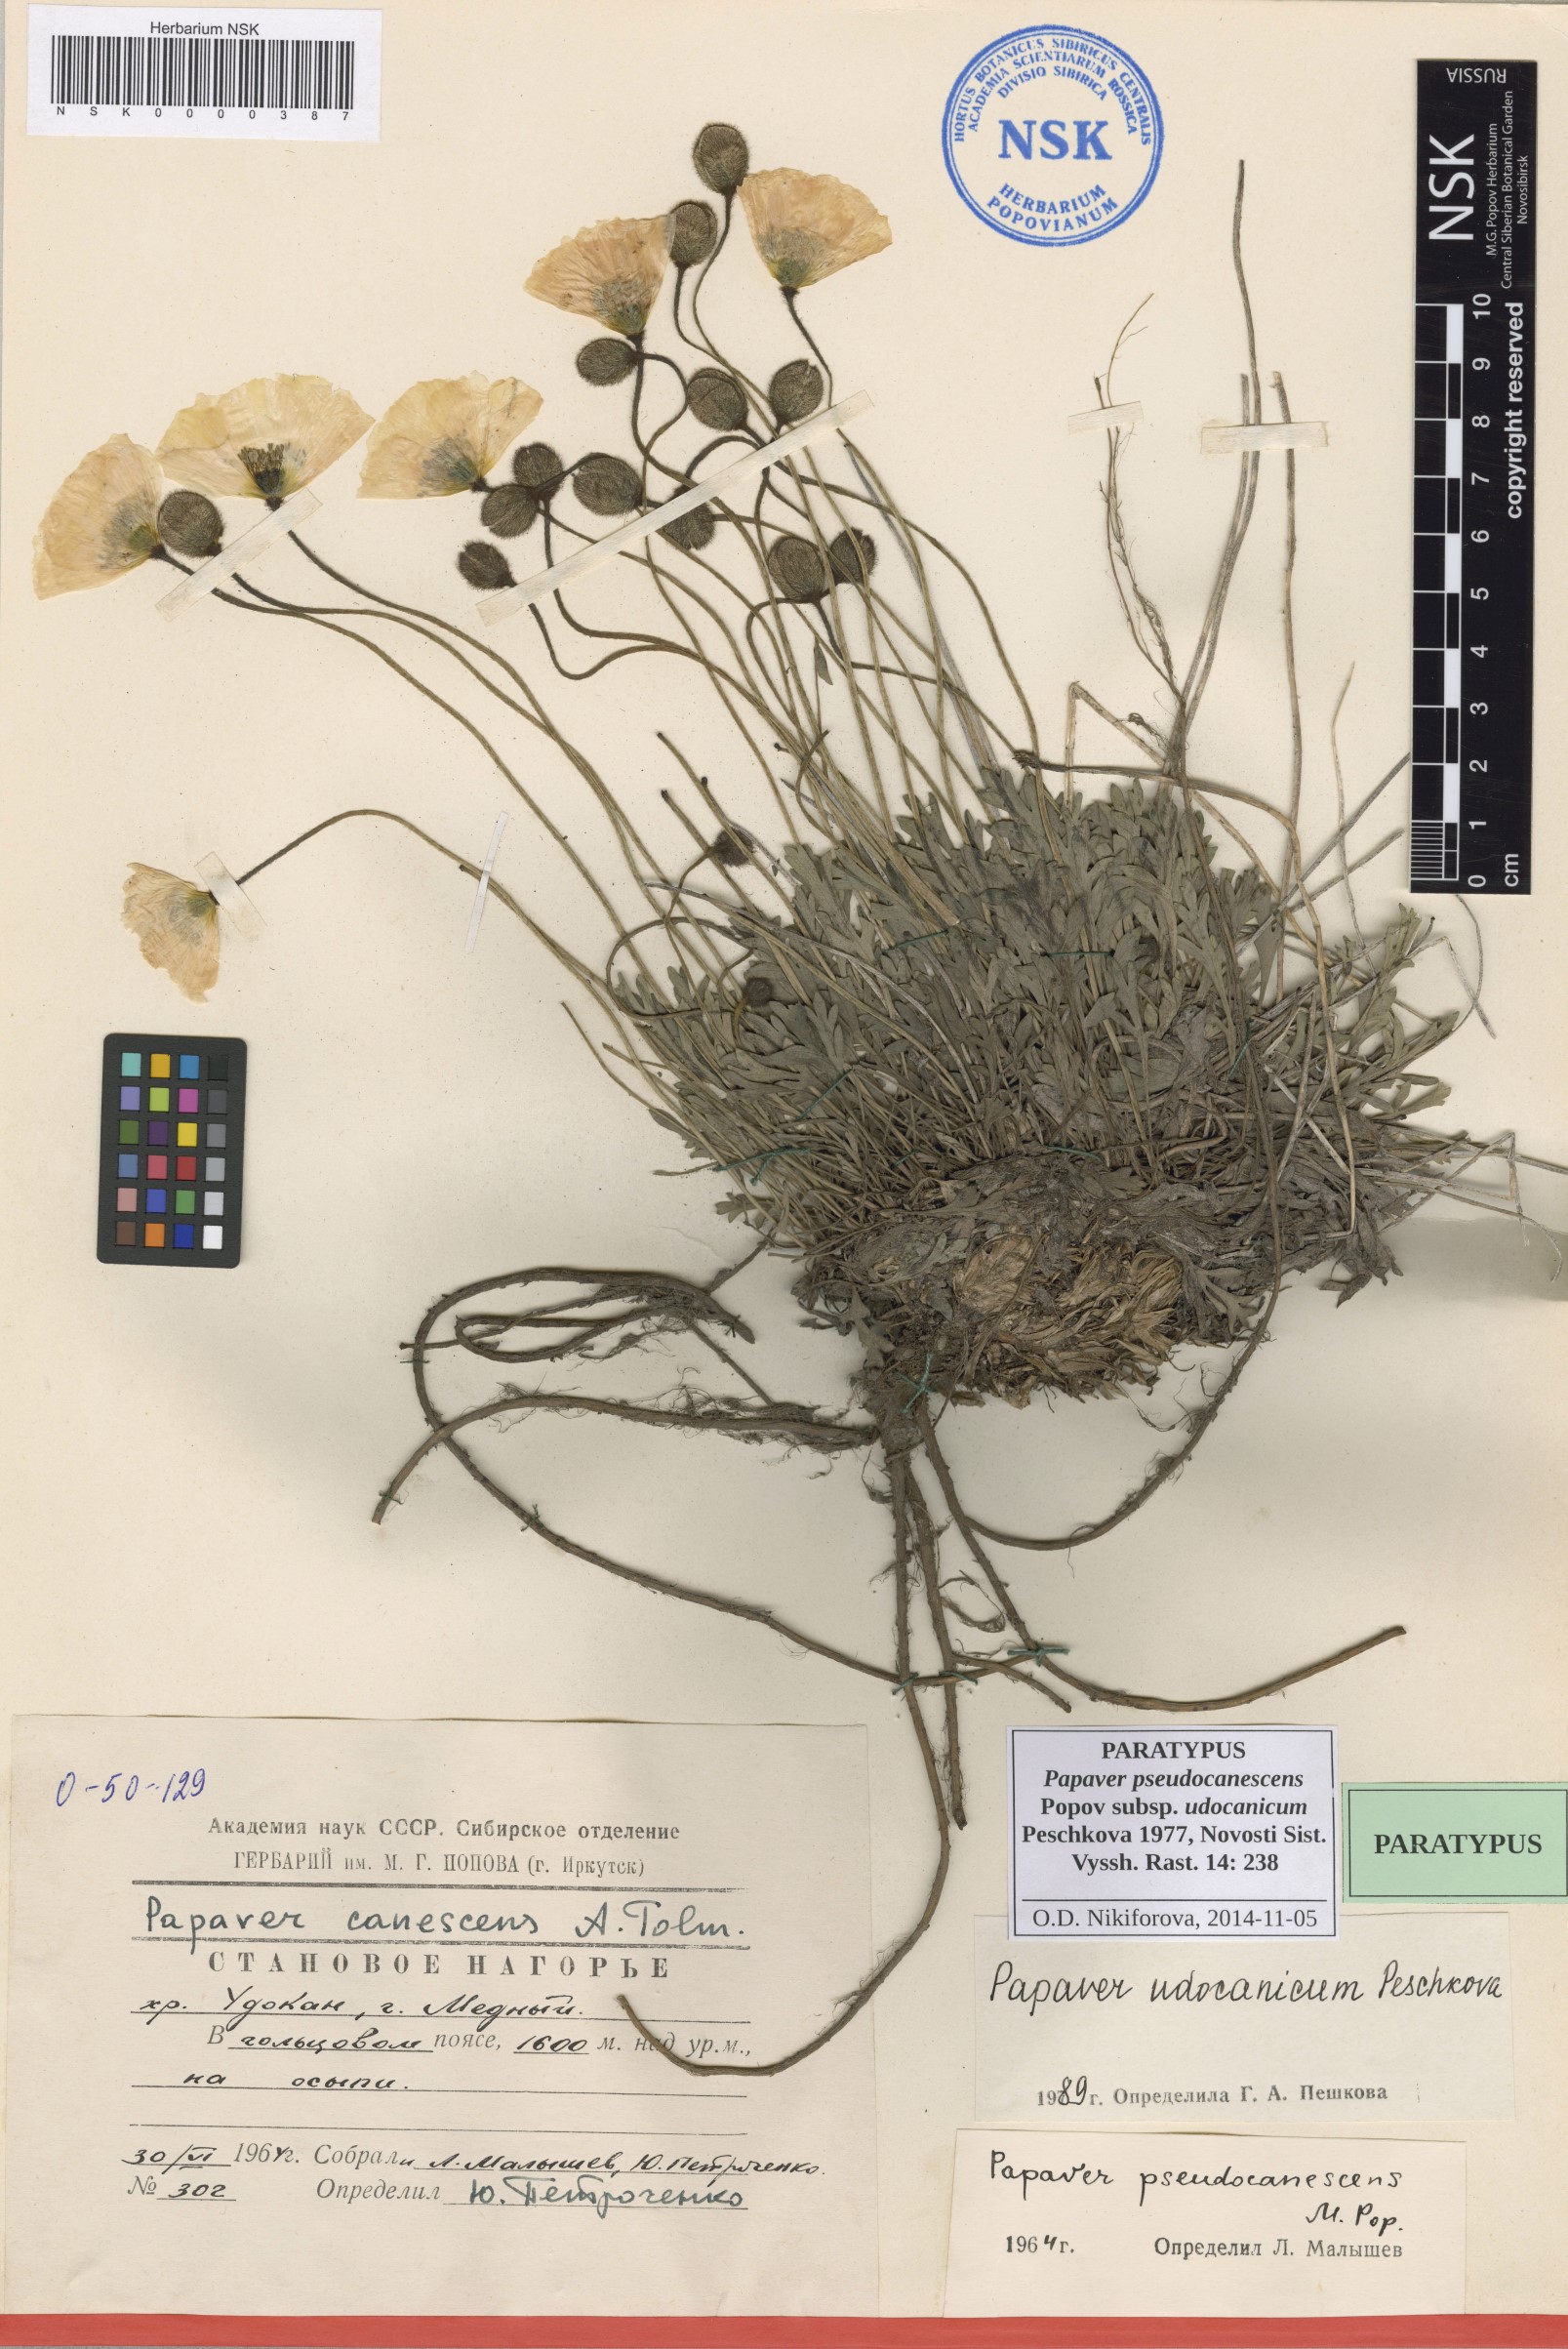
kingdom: Plantae
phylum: Tracheophyta
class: Magnoliopsida
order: Ranunculales
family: Papaveraceae
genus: Papaver
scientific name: Papaver udocanicum
